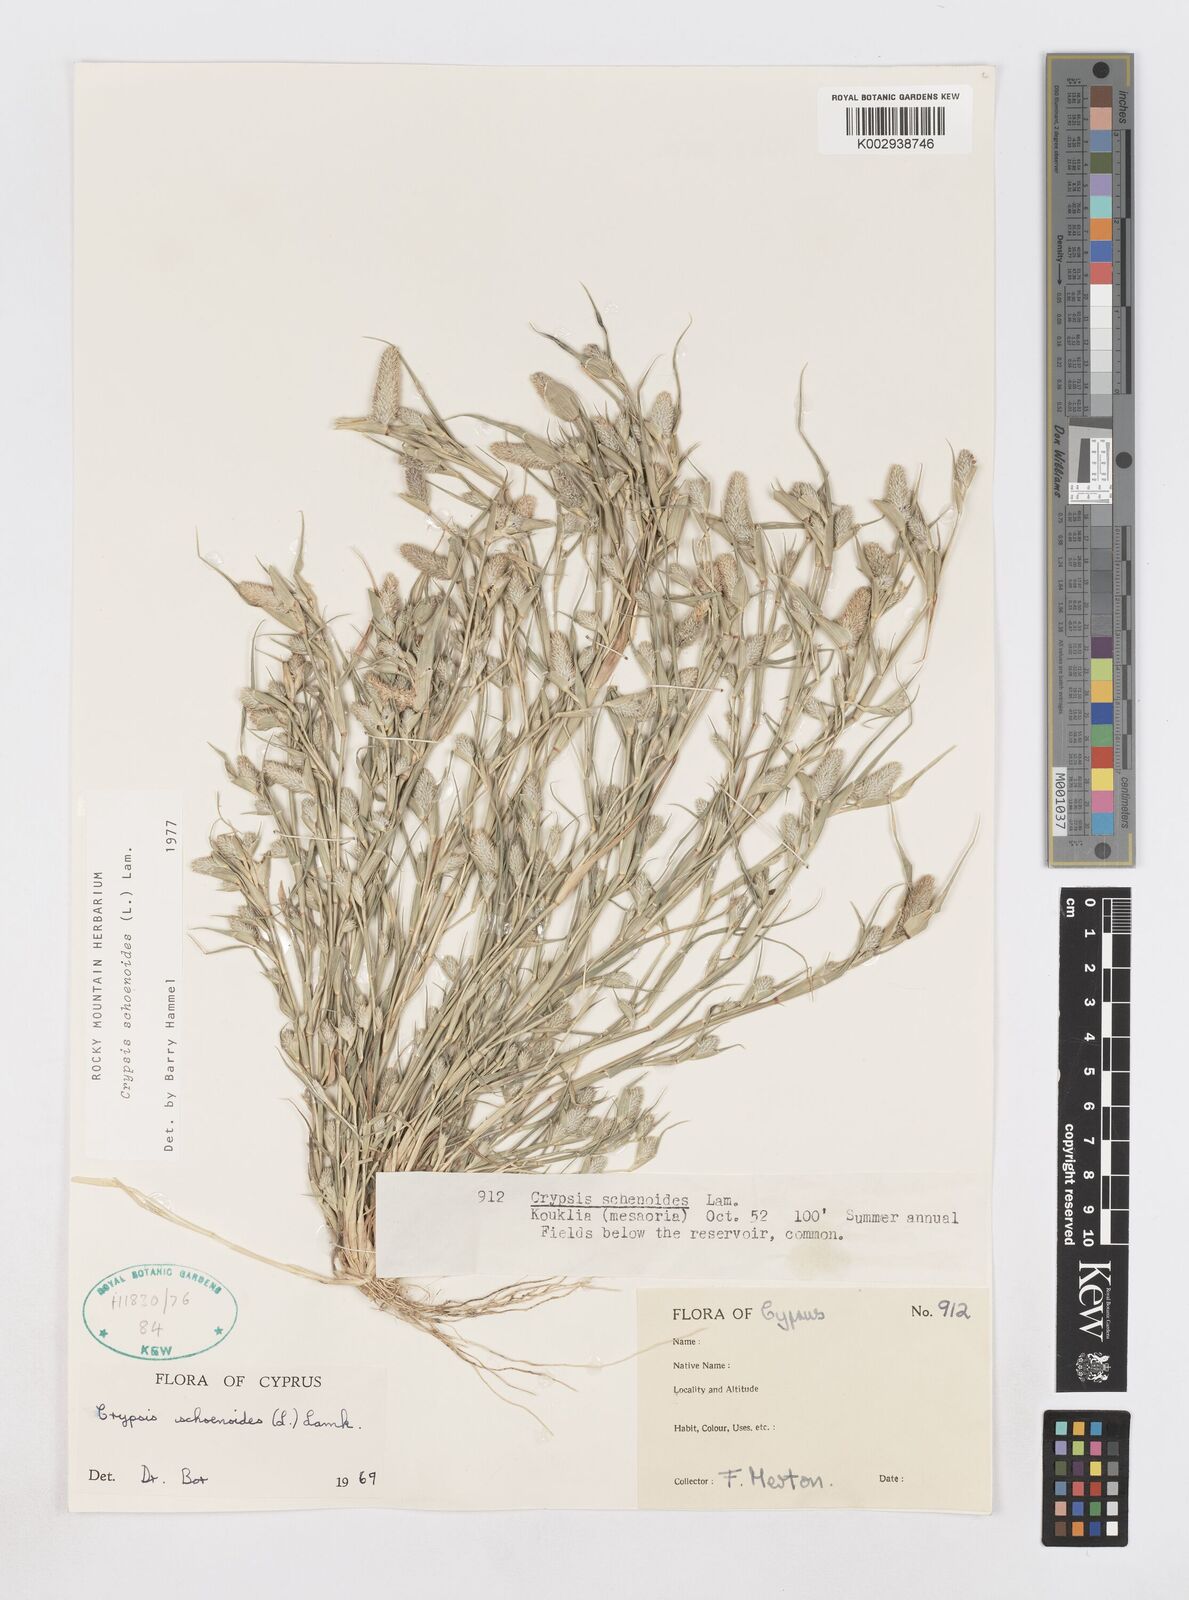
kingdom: Plantae
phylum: Tracheophyta
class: Liliopsida
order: Poales
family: Poaceae
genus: Sporobolus
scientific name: Sporobolus schoenoides
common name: Rush-like timothy
